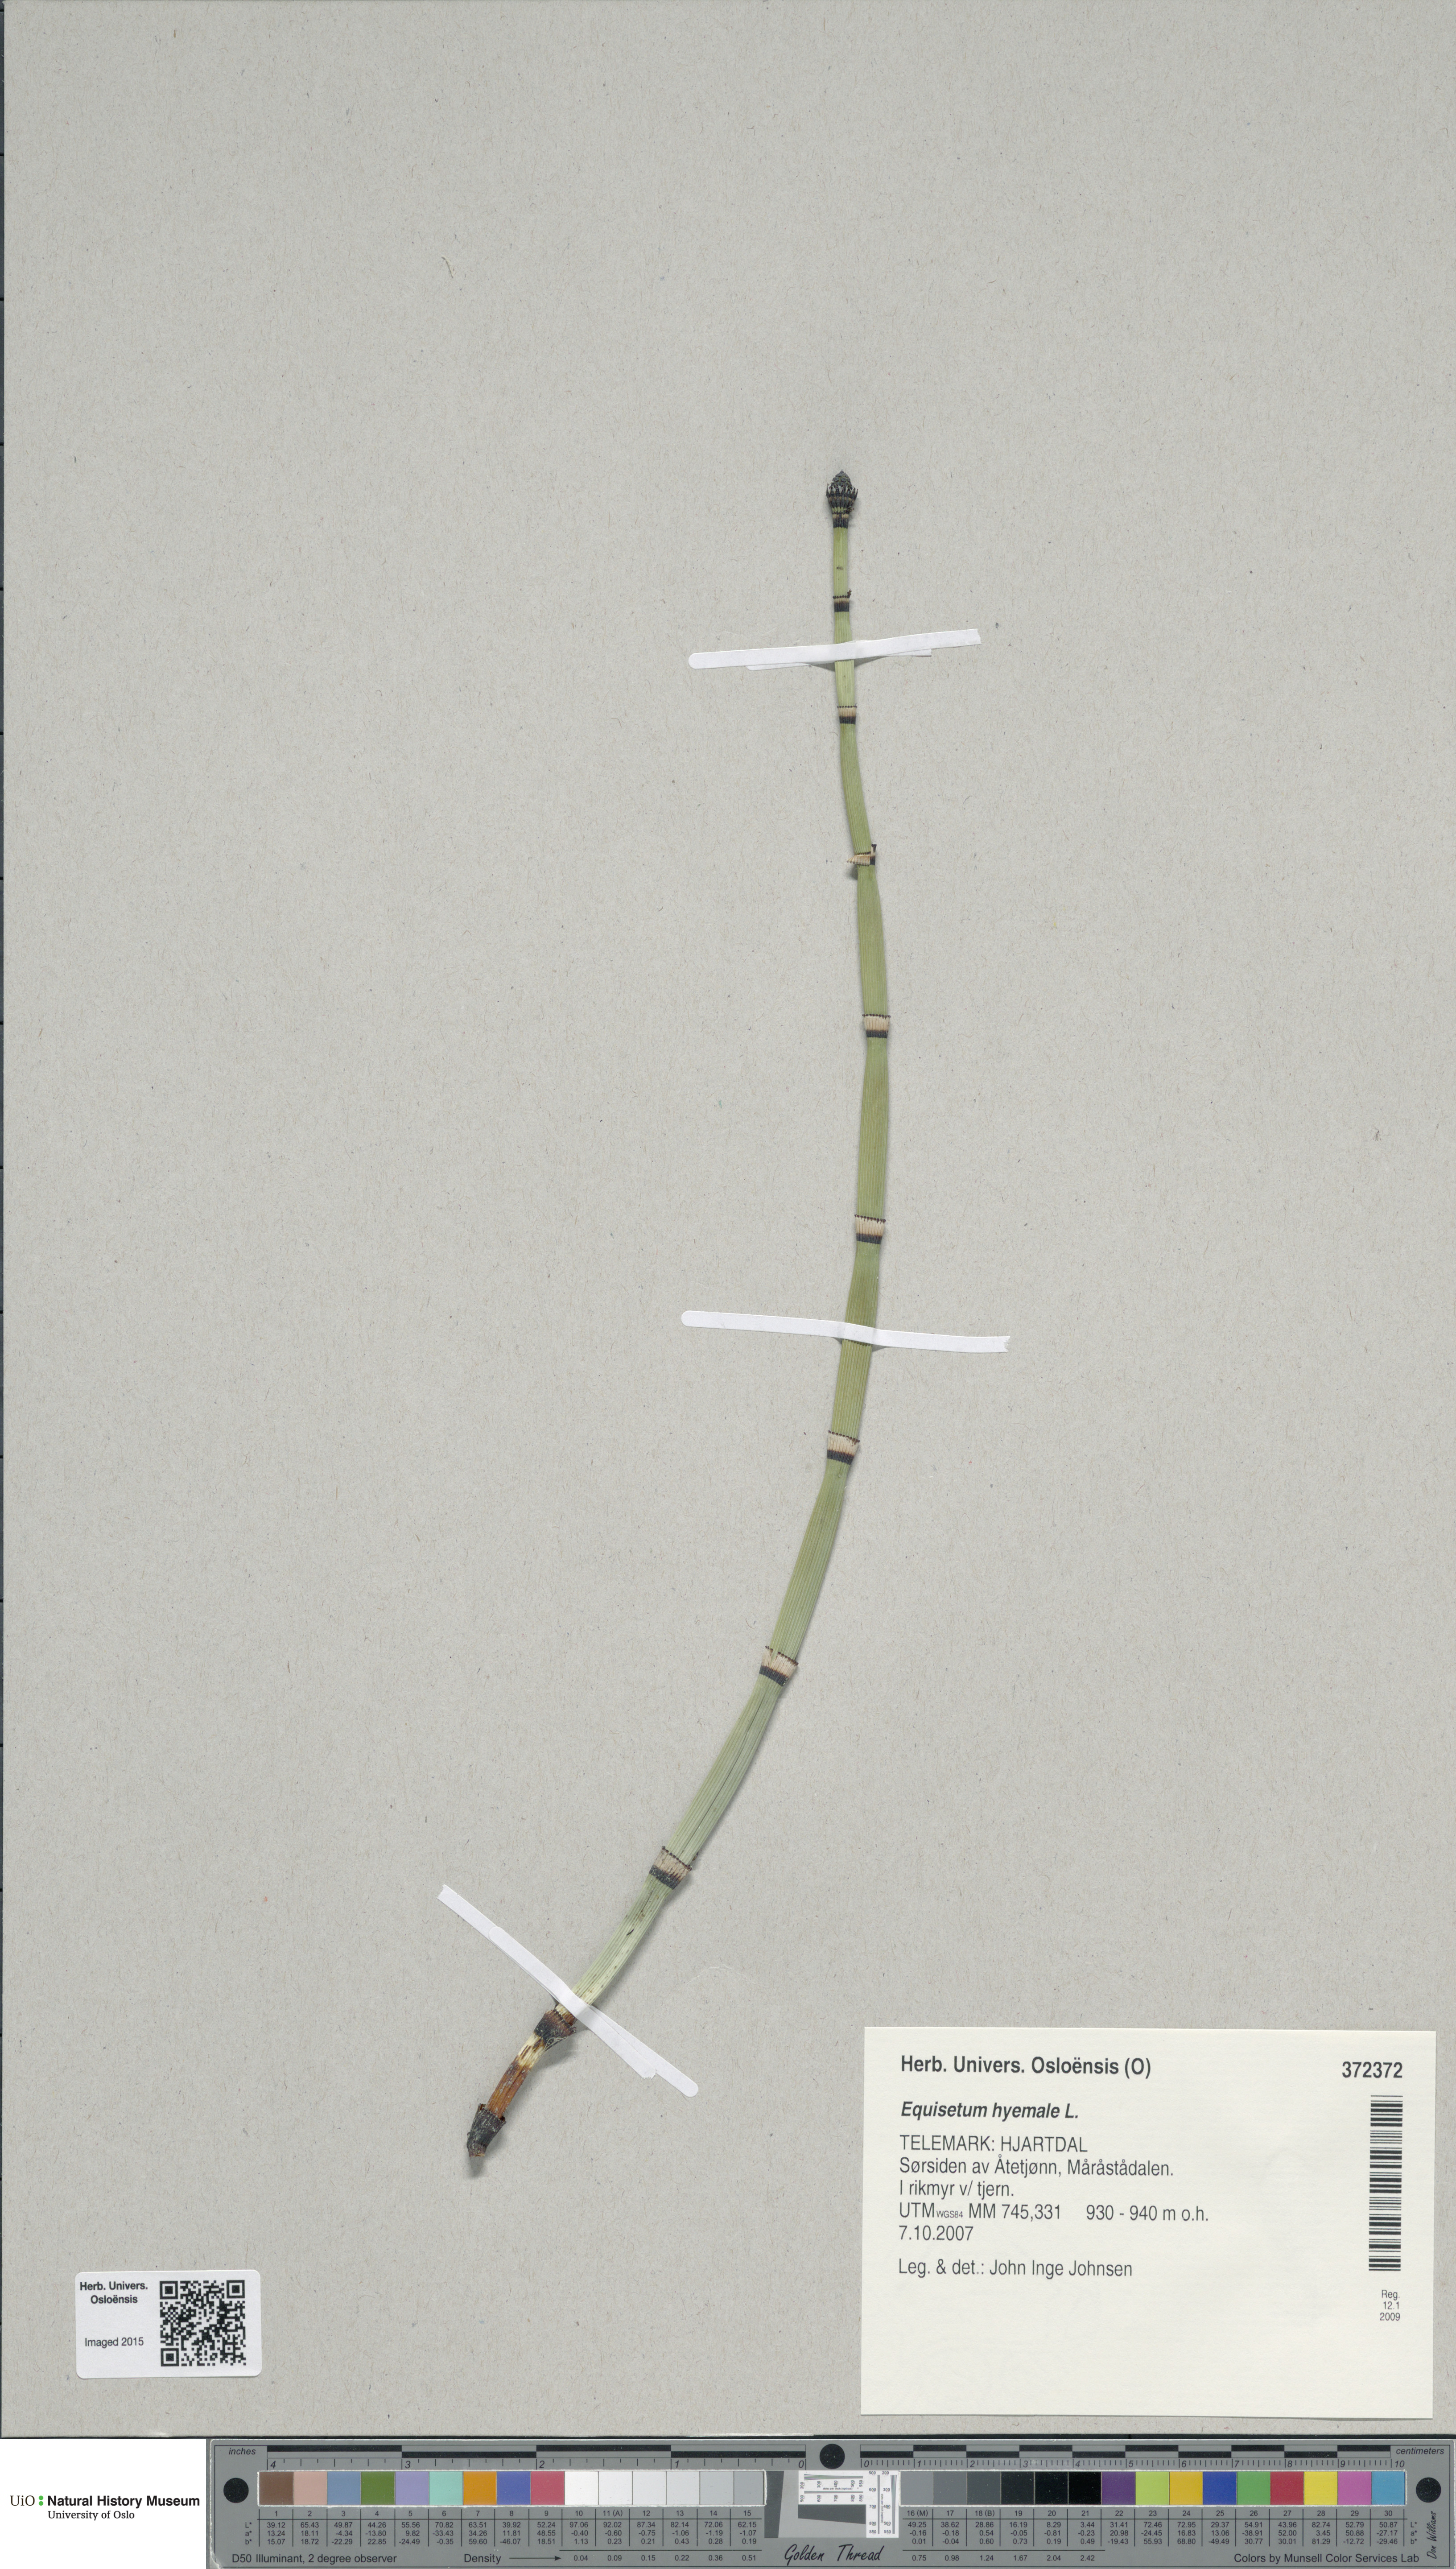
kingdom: Plantae
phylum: Tracheophyta
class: Polypodiopsida
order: Equisetales
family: Equisetaceae
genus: Equisetum
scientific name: Equisetum hyemale
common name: Rough horsetail
